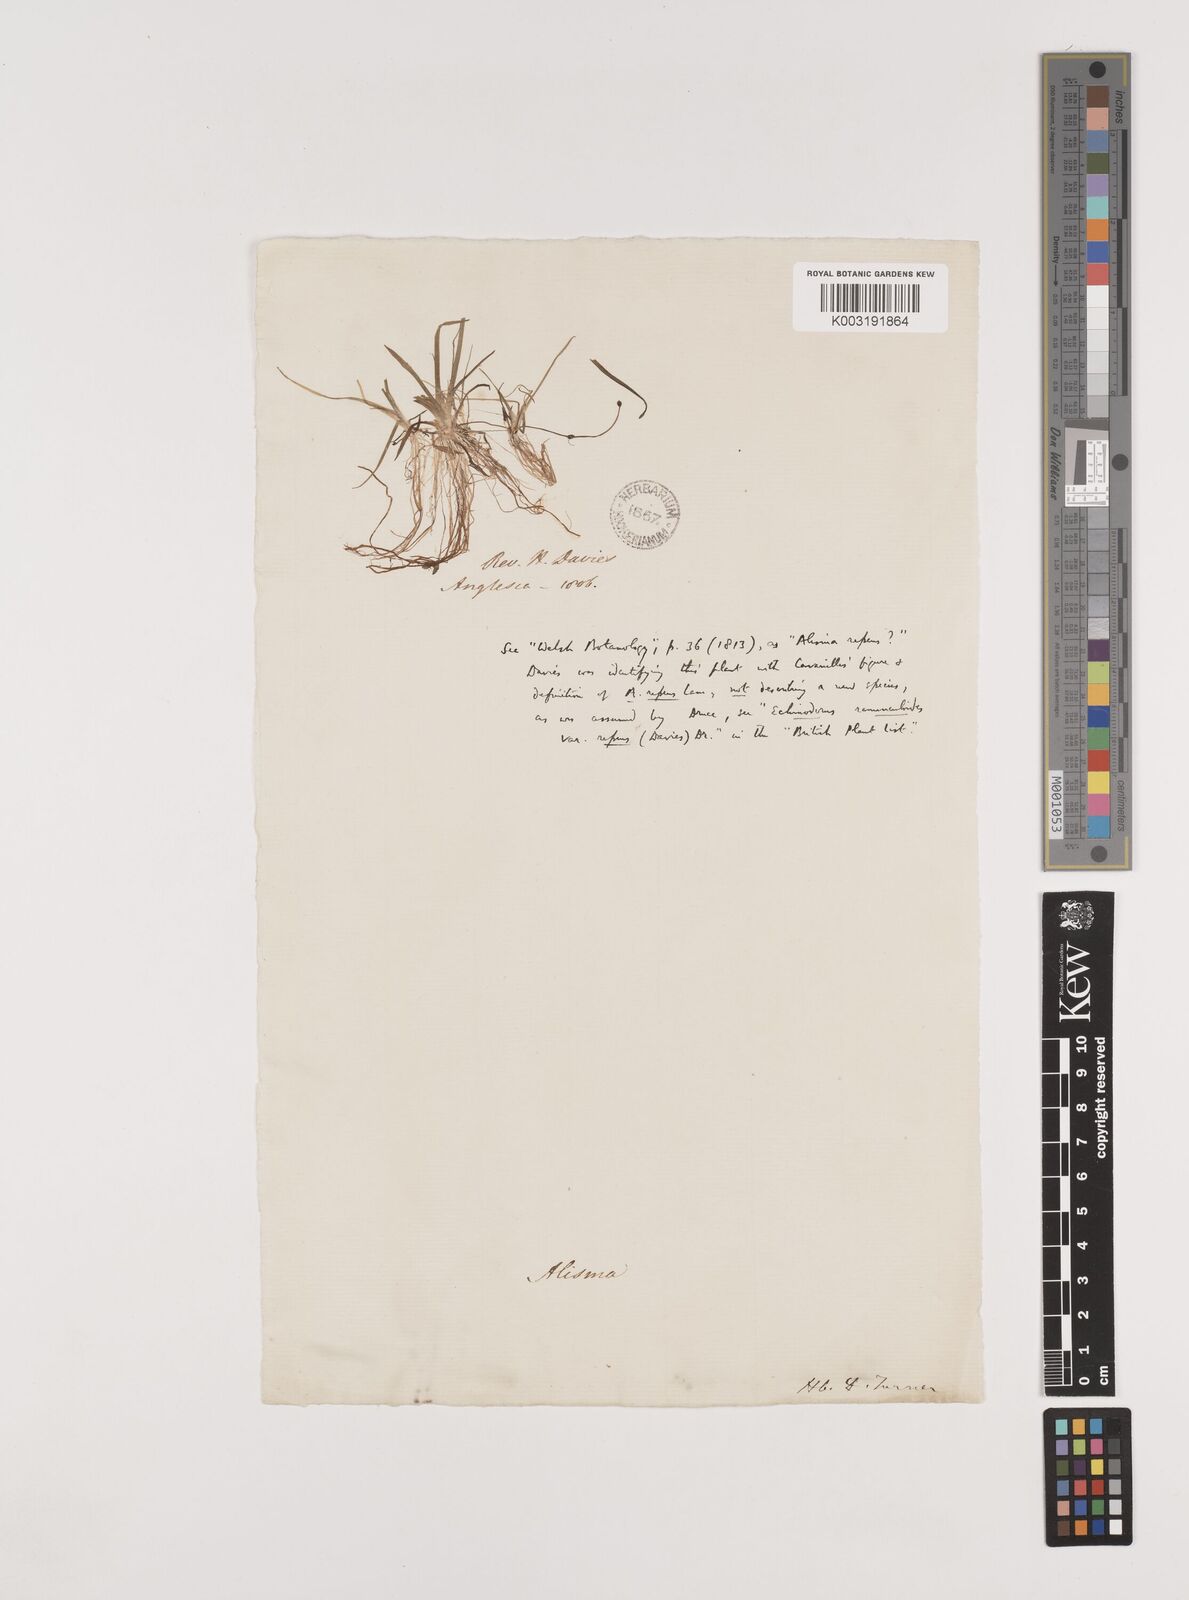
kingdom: Plantae
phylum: Tracheophyta
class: Liliopsida
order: Alismatales
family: Alismataceae
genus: Baldellia
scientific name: Baldellia repens
